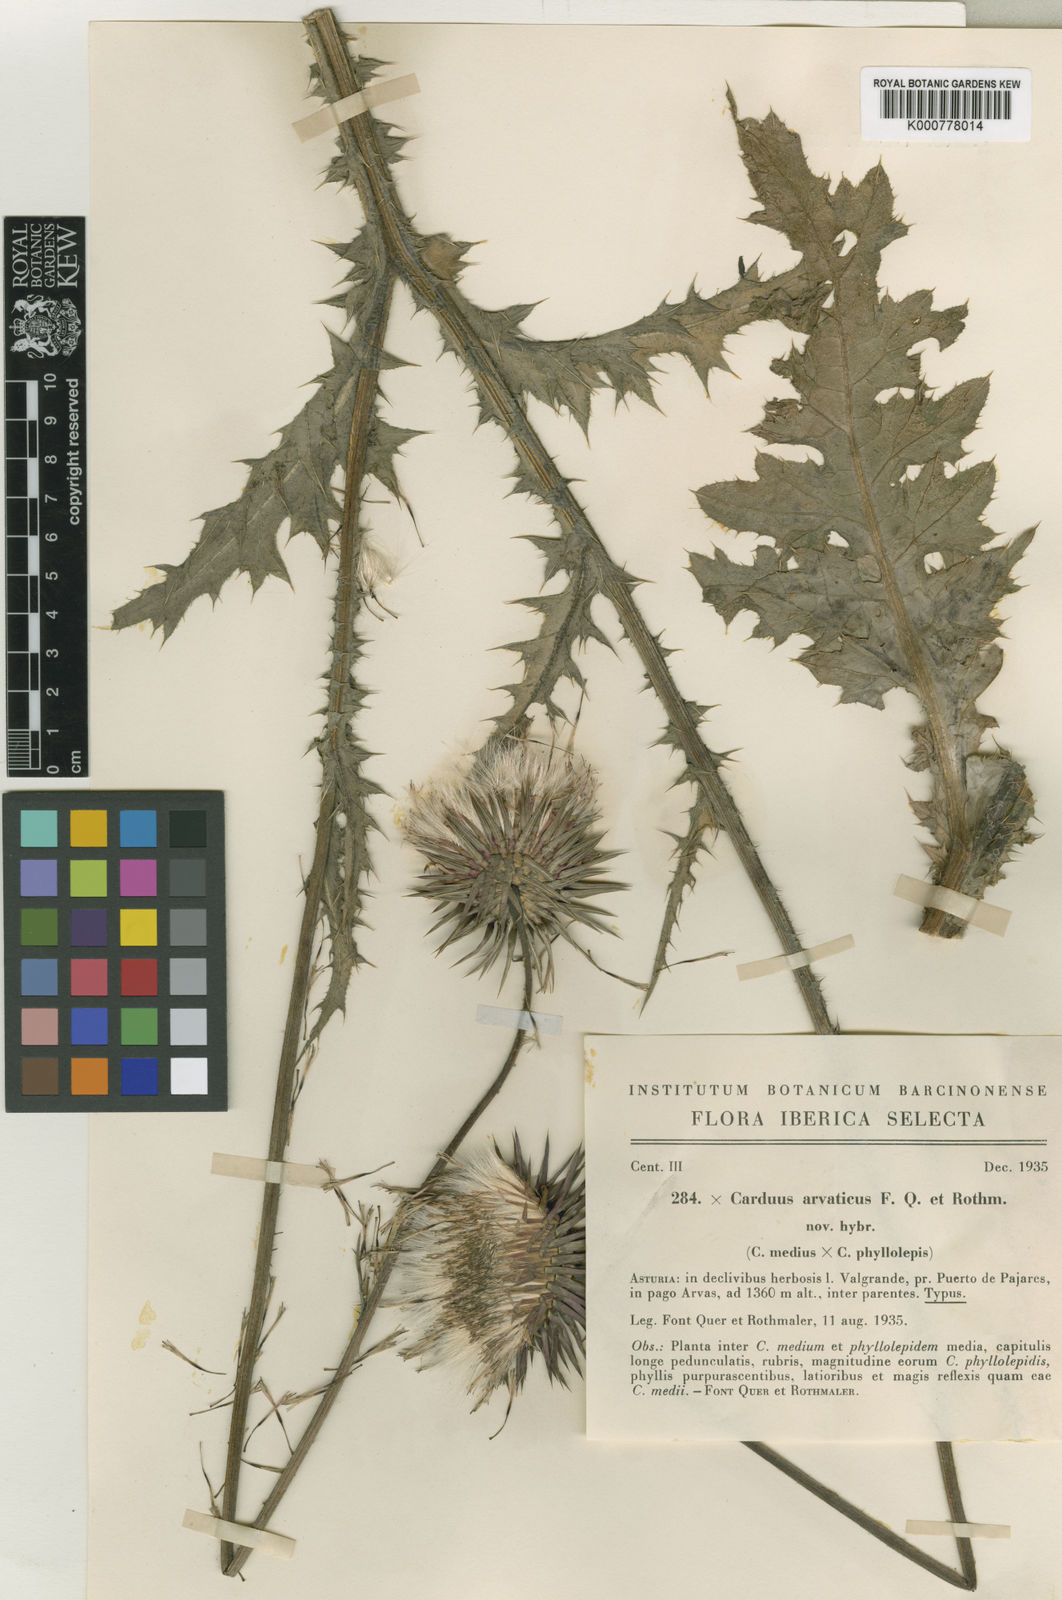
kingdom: Plantae
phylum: Tracheophyta
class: Magnoliopsida
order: Asterales
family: Asteraceae
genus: Cirsium
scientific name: Cirsium medium
